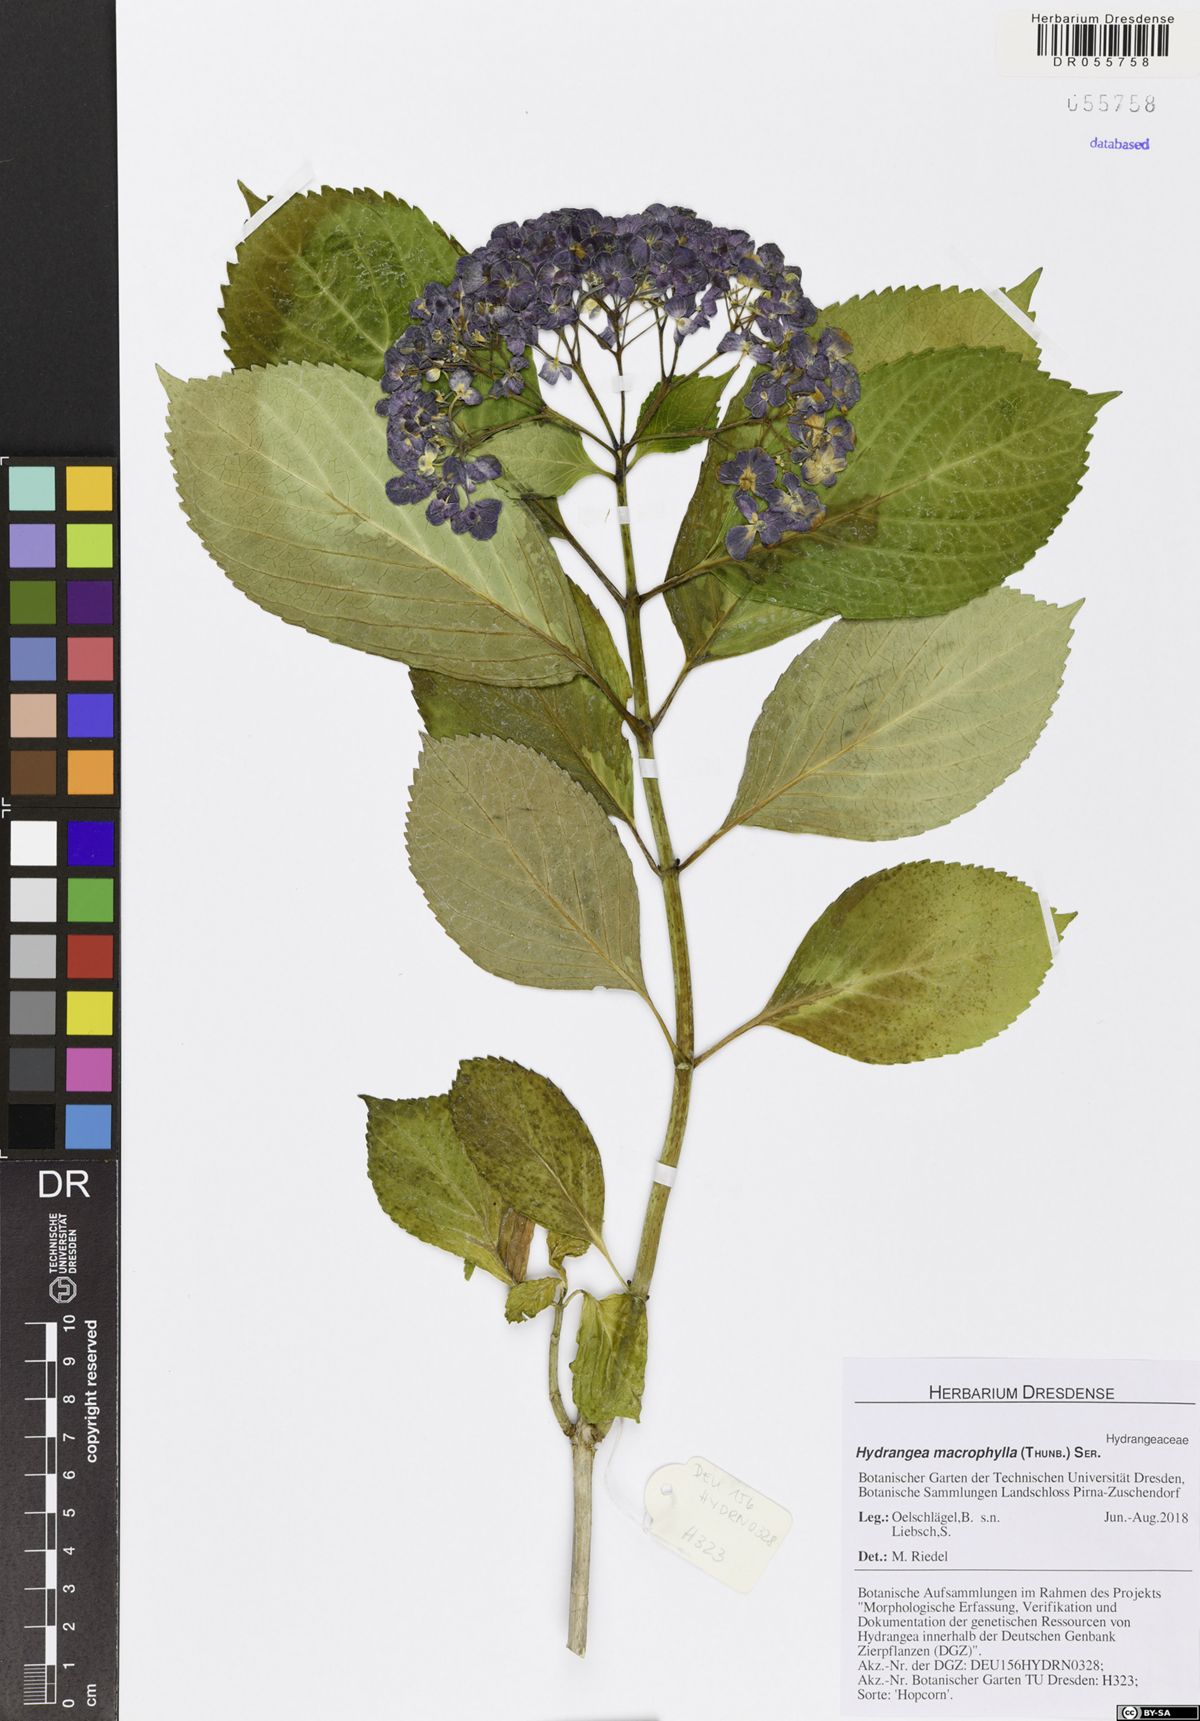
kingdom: Plantae
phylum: Tracheophyta
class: Magnoliopsida
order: Cornales
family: Hydrangeaceae
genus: Hydrangea
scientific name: Hydrangea macrophylla
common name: Hydrangea
